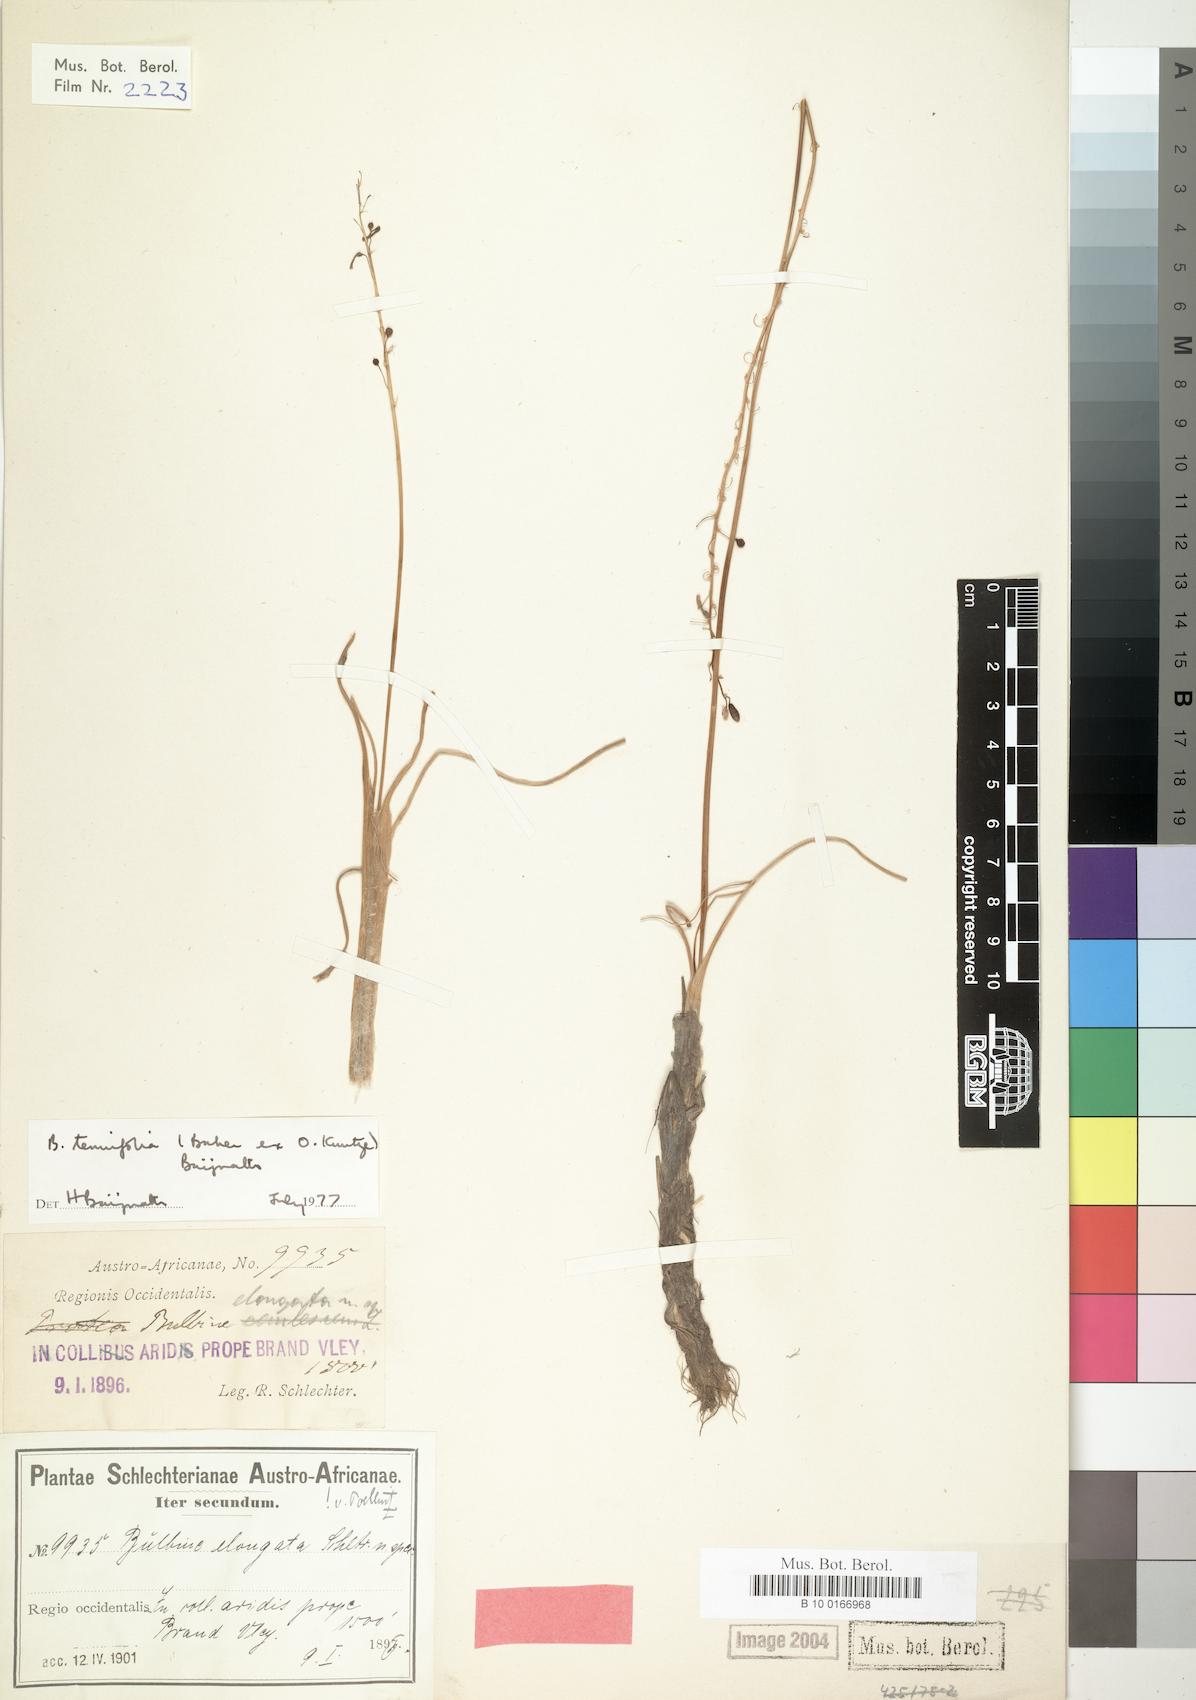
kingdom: Plantae
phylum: Tracheophyta
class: Liliopsida
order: Liliales
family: Liliaceae
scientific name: Liliaceae
